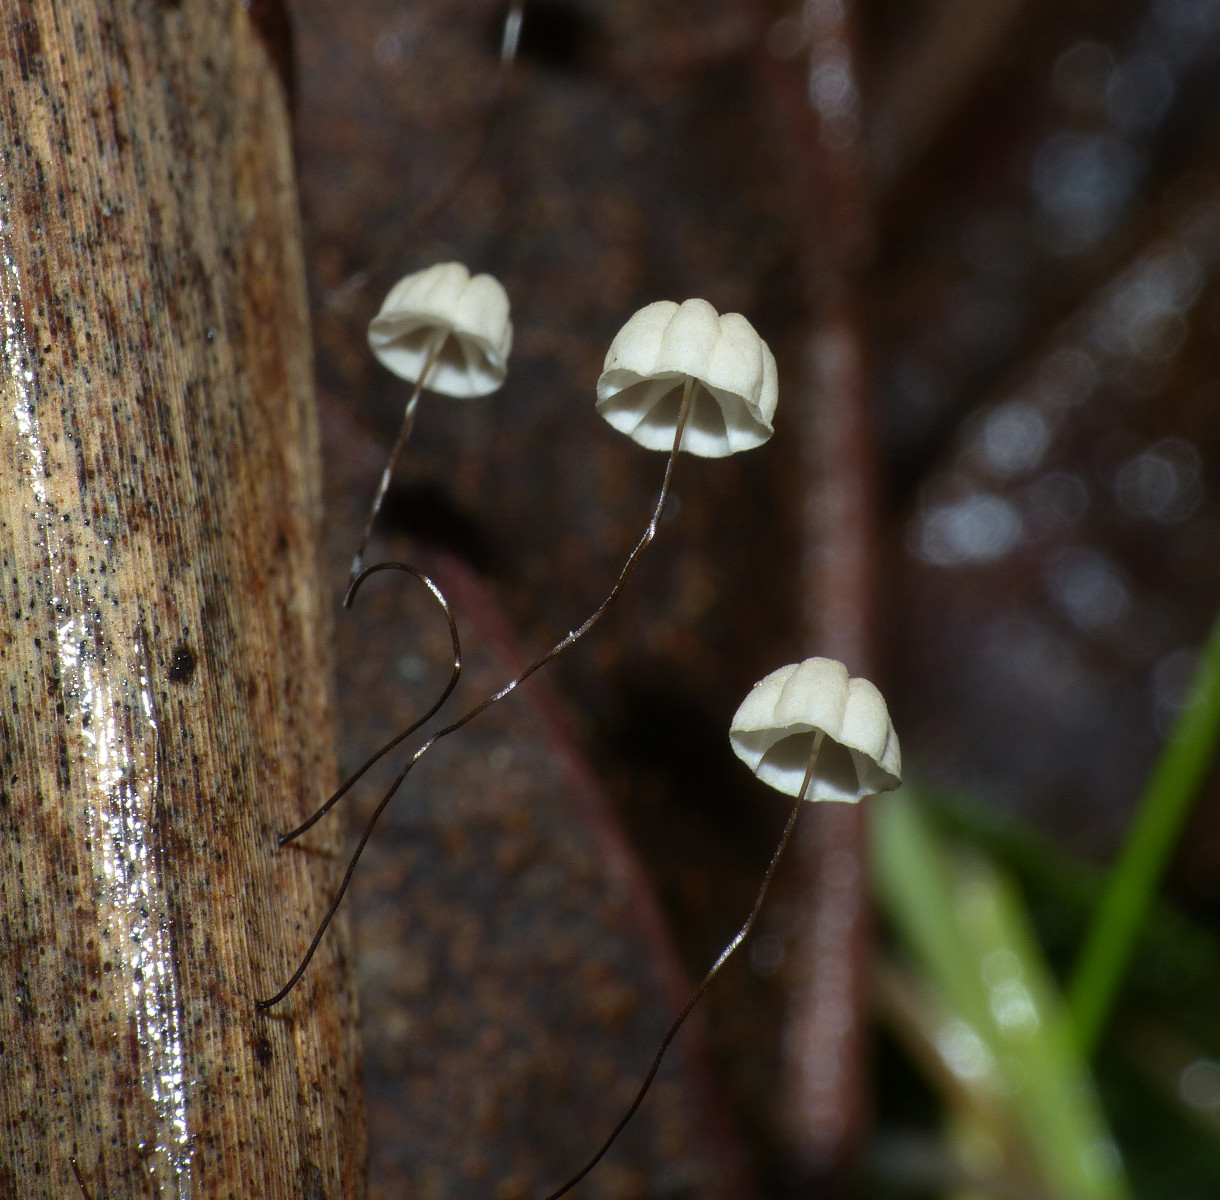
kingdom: Fungi
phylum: Basidiomycota
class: Agaricomycetes
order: Agaricales
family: Marasmiaceae
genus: Marasmius
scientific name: Marasmius limosus
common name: kær-bruskhat
